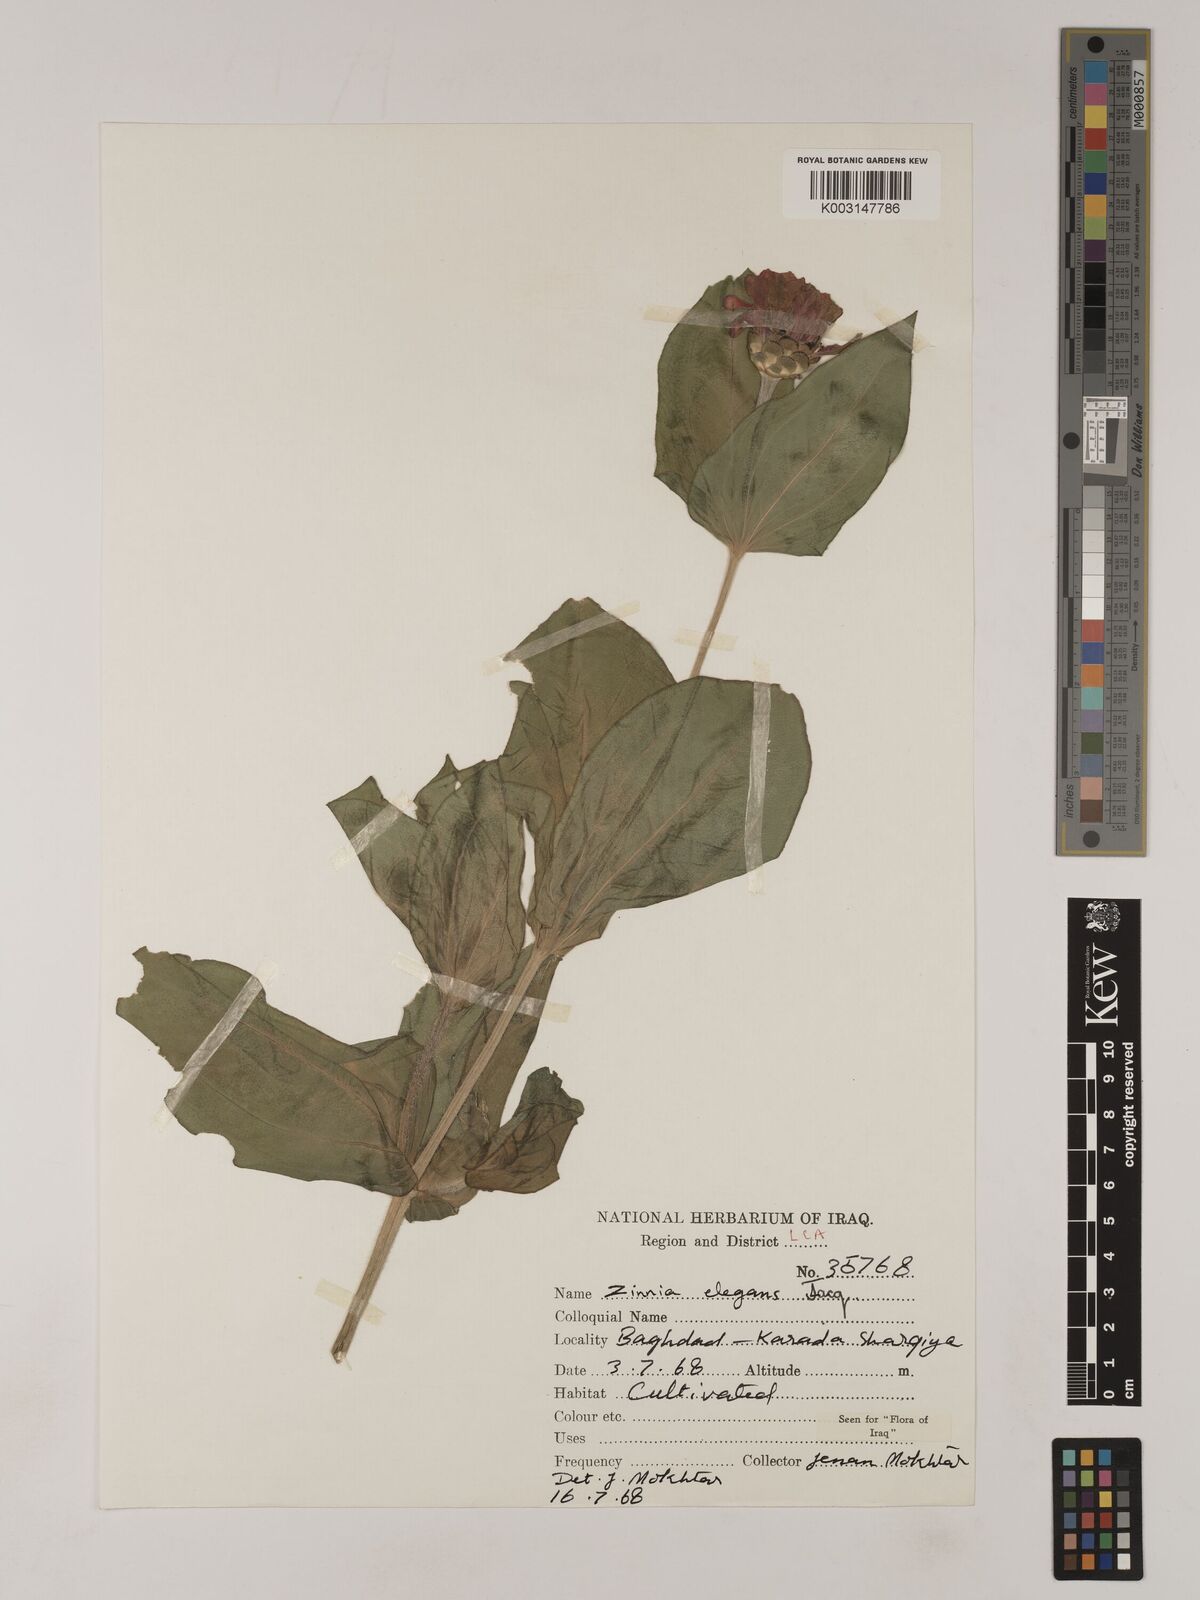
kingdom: Plantae
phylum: Tracheophyta
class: Magnoliopsida
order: Asterales
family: Asteraceae
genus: Zinnia
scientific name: Zinnia elegans
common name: Youth-and-age
